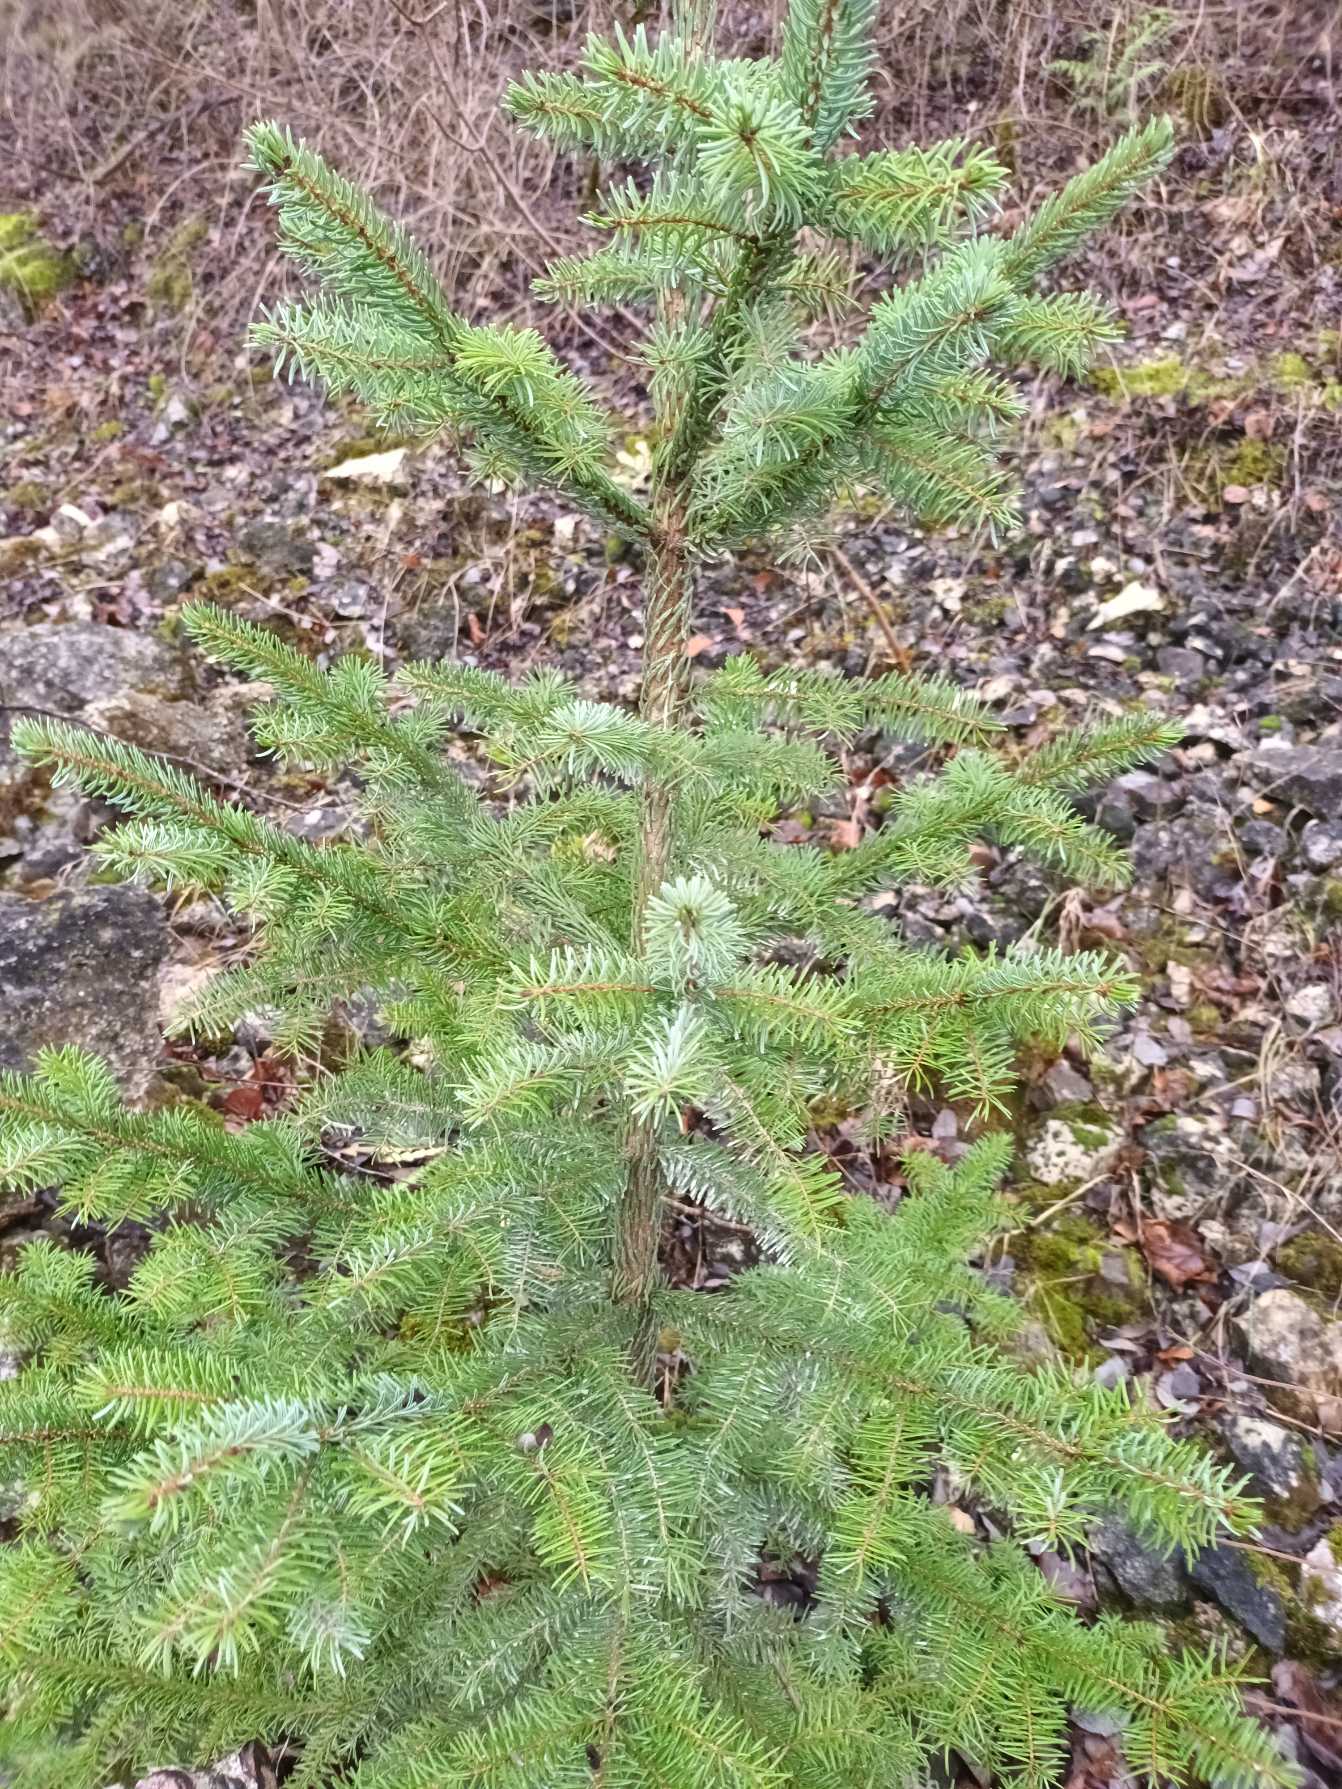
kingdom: Plantae
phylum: Tracheophyta
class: Pinopsida
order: Pinales
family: Pinaceae
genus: Picea
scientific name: Picea sitchensis
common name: Sitka-gran
